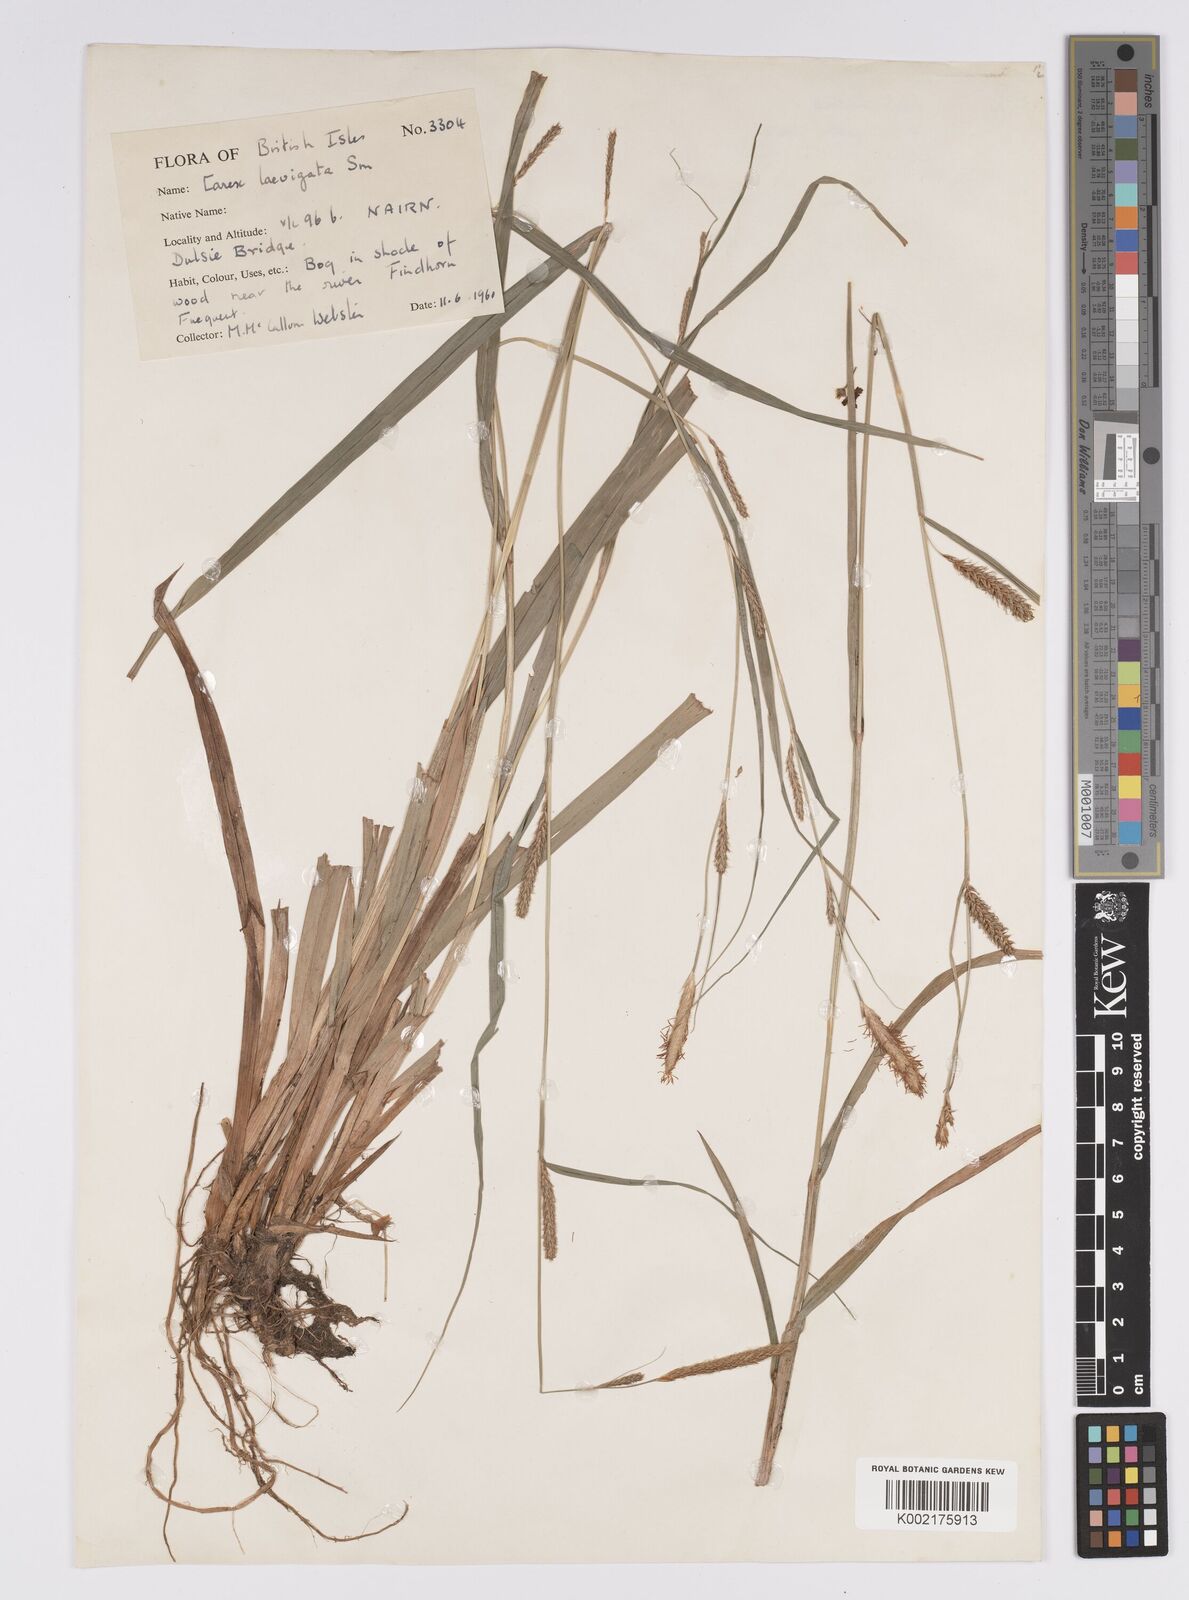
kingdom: Plantae
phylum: Tracheophyta
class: Liliopsida
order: Poales
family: Cyperaceae
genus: Carex
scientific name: Carex laevigata
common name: Smooth-stalked sedge
